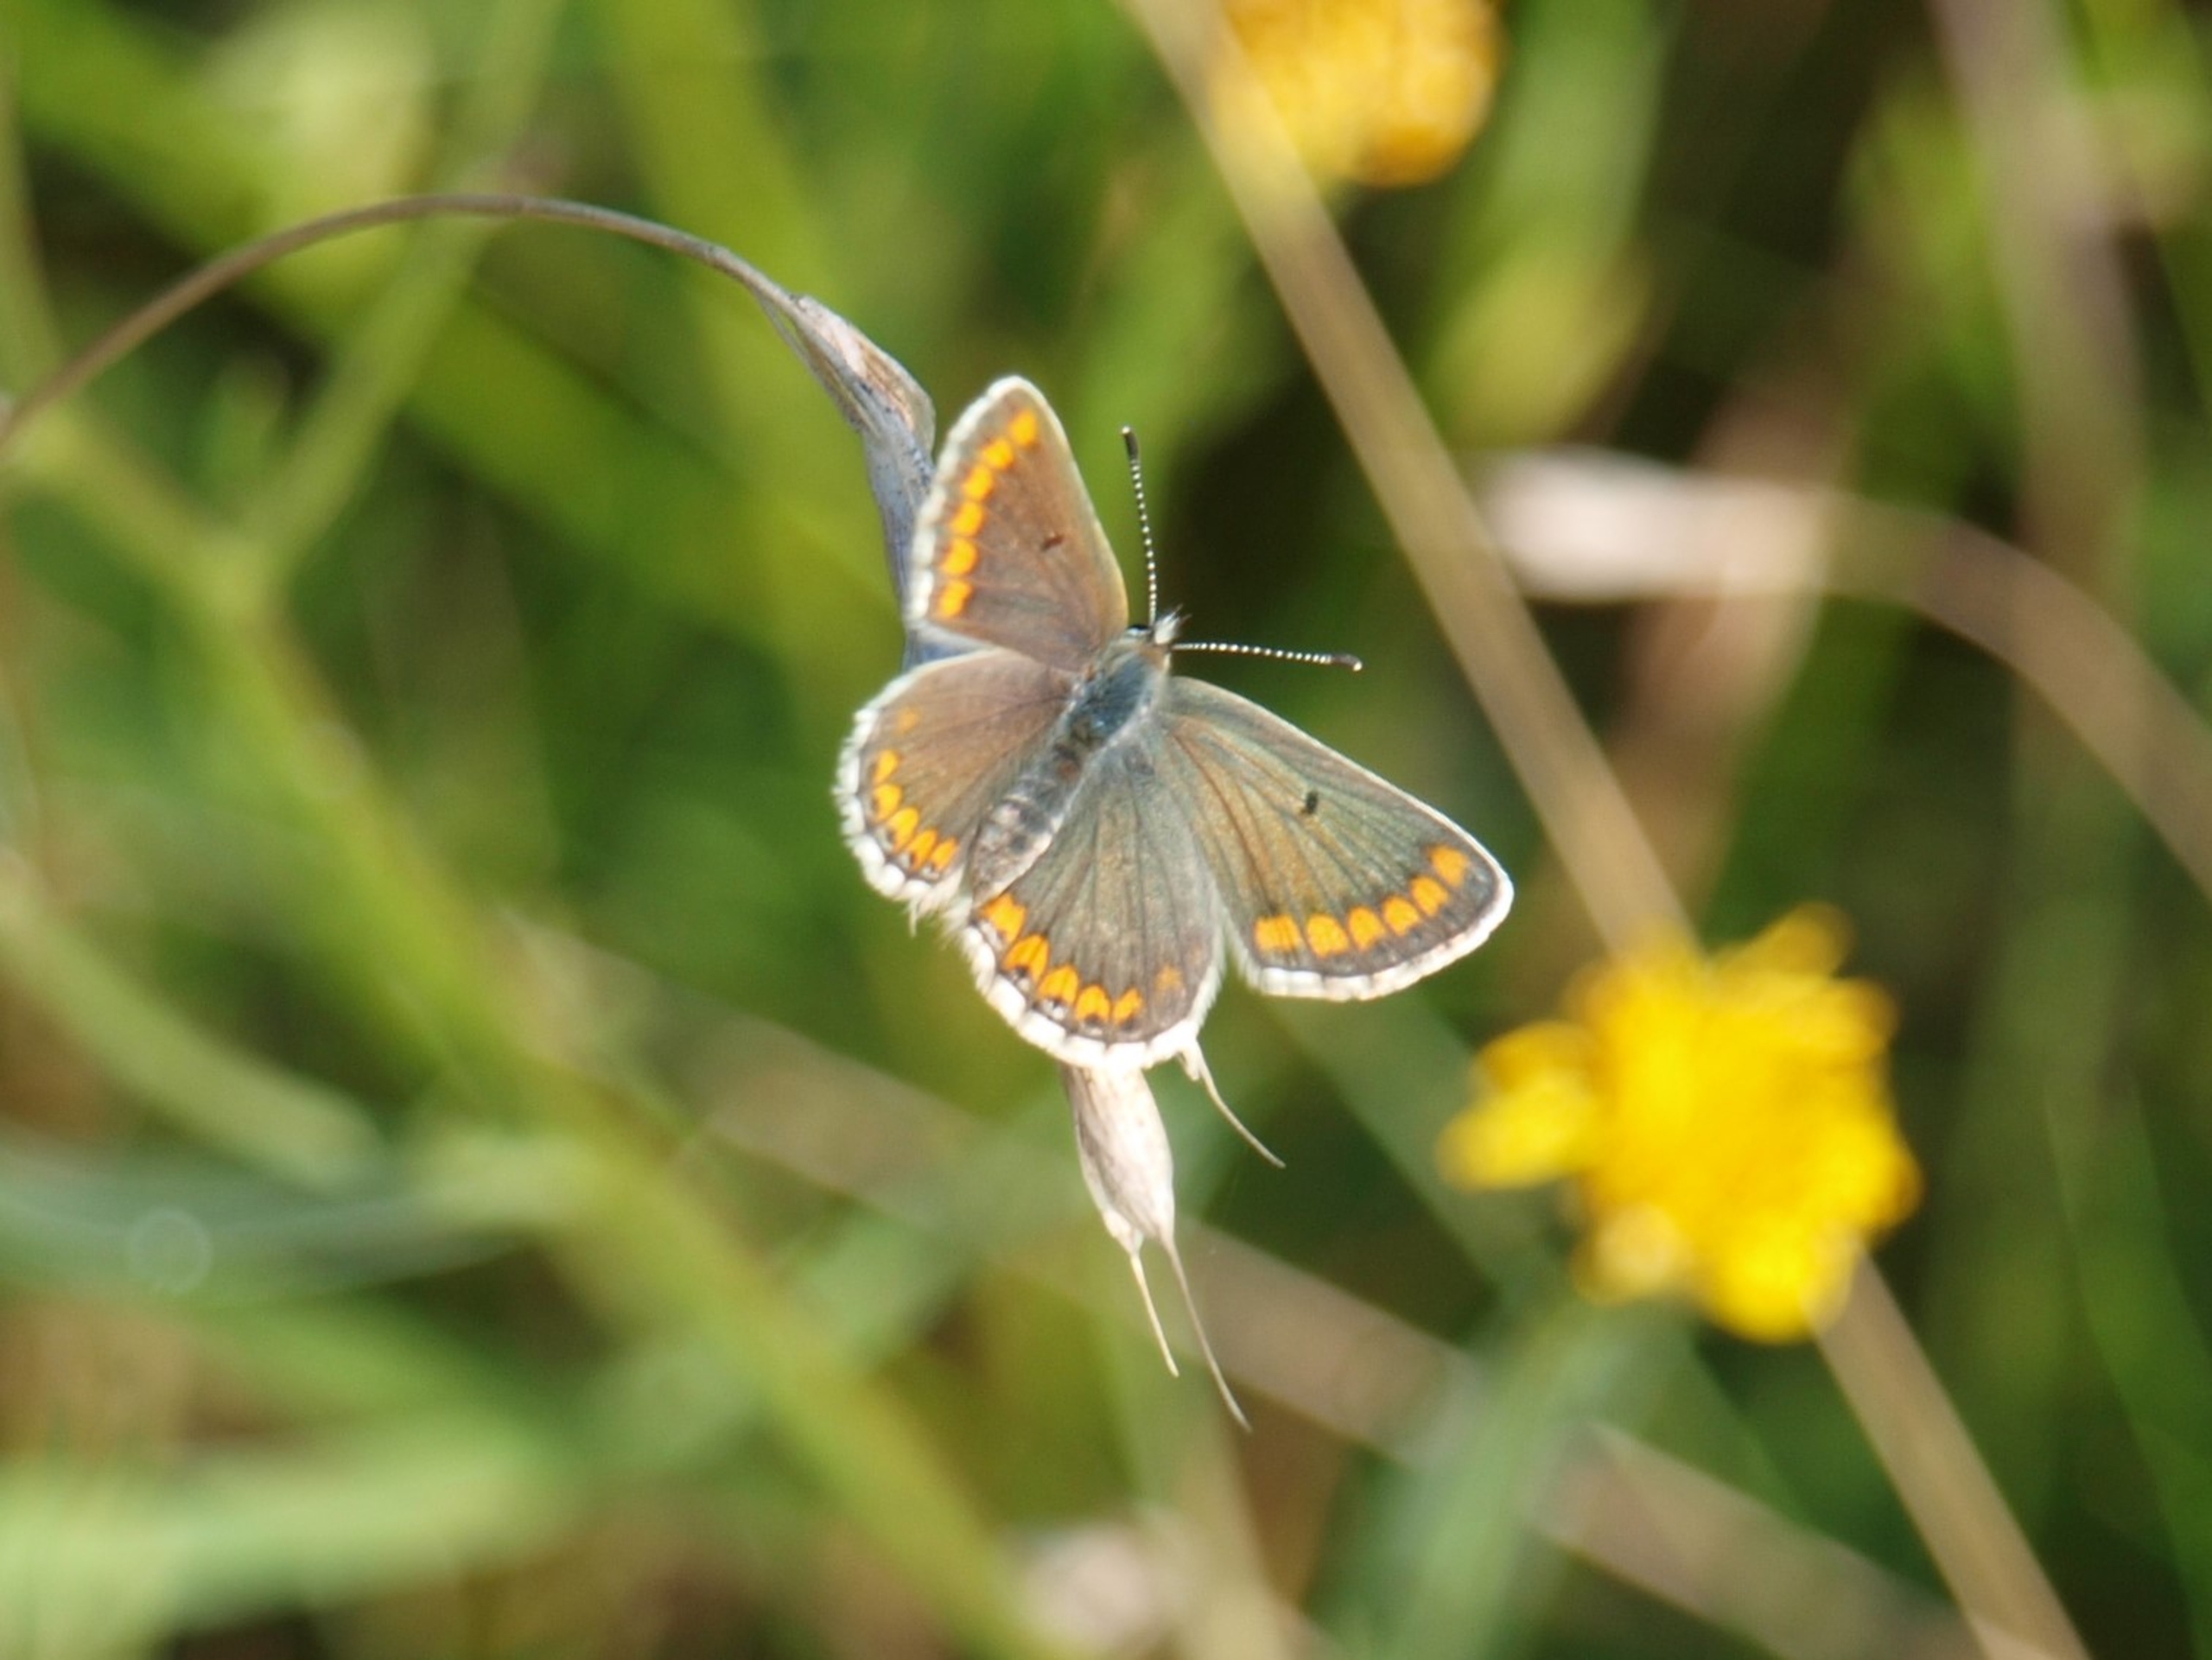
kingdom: Animalia
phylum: Arthropoda
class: Insecta
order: Lepidoptera
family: Lycaenidae
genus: Aricia
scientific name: Aricia agestis
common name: Rødplettet blåfugl
